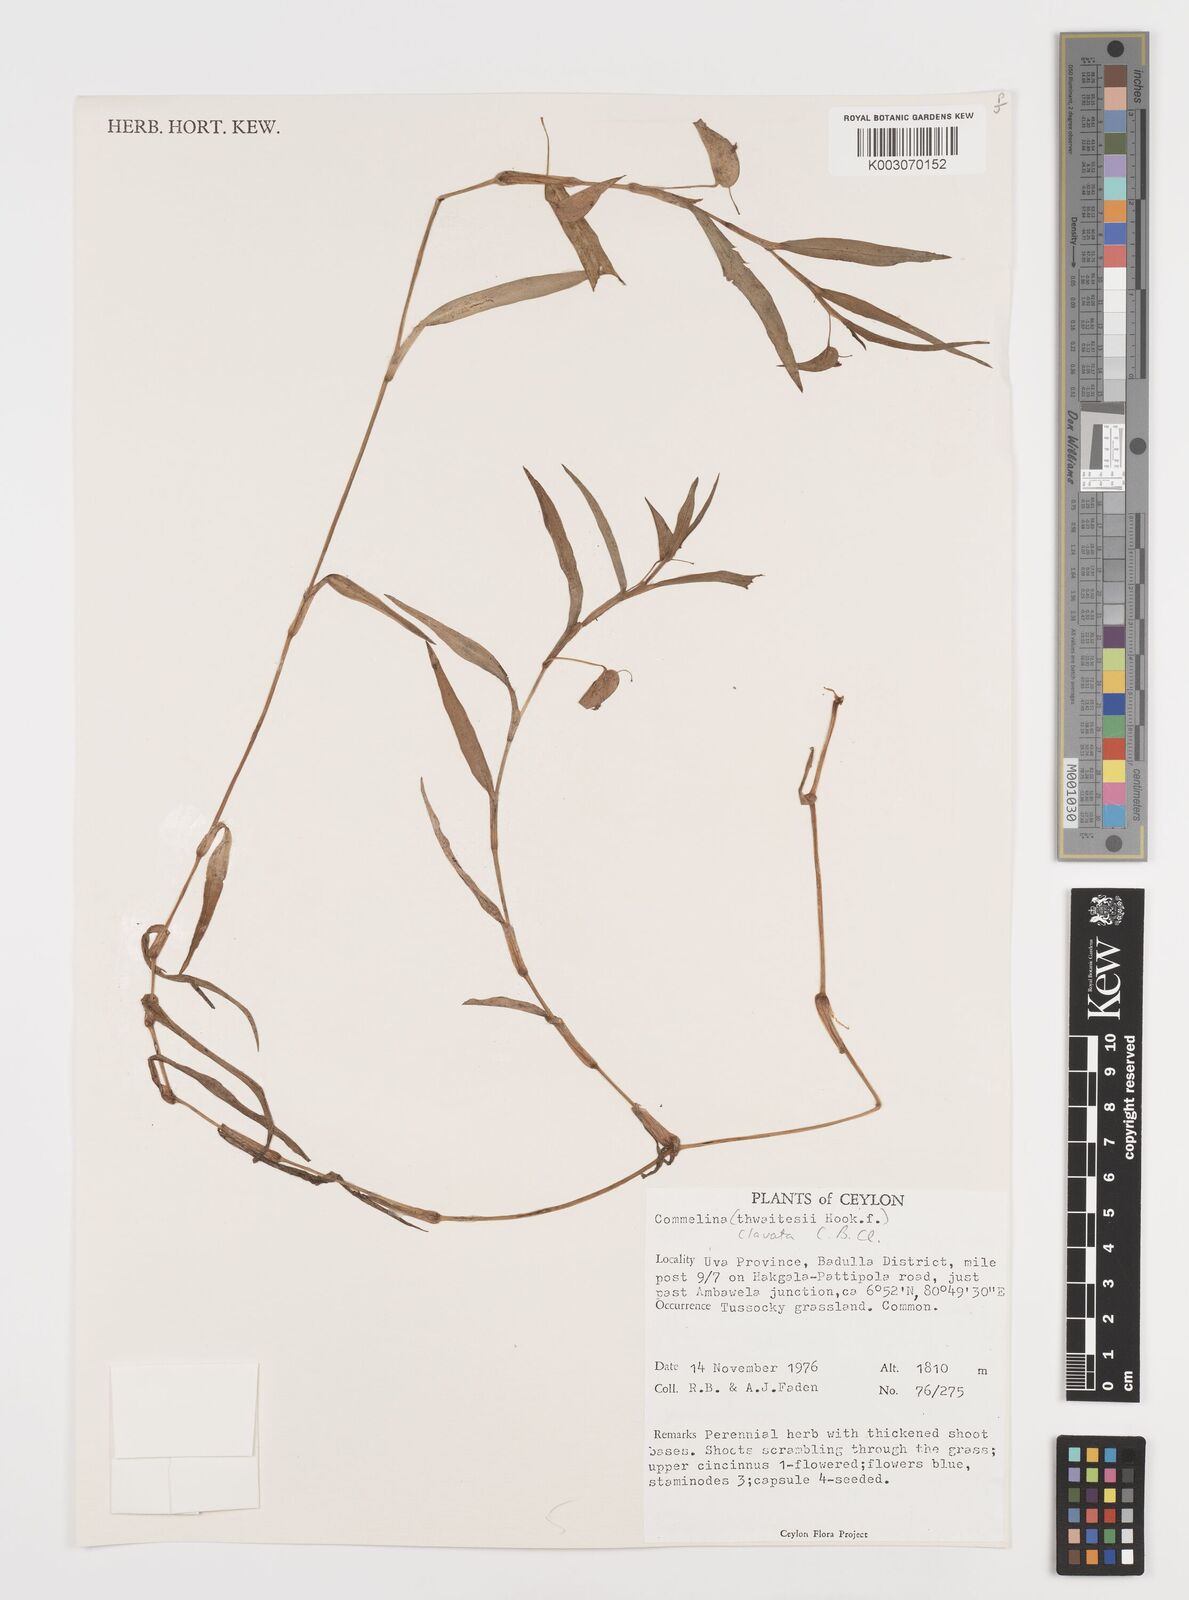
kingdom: Plantae
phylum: Tracheophyta
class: Liliopsida
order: Commelinales
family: Commelinaceae
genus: Commelina
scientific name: Commelina clavata
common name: Willow leaved dayflower
